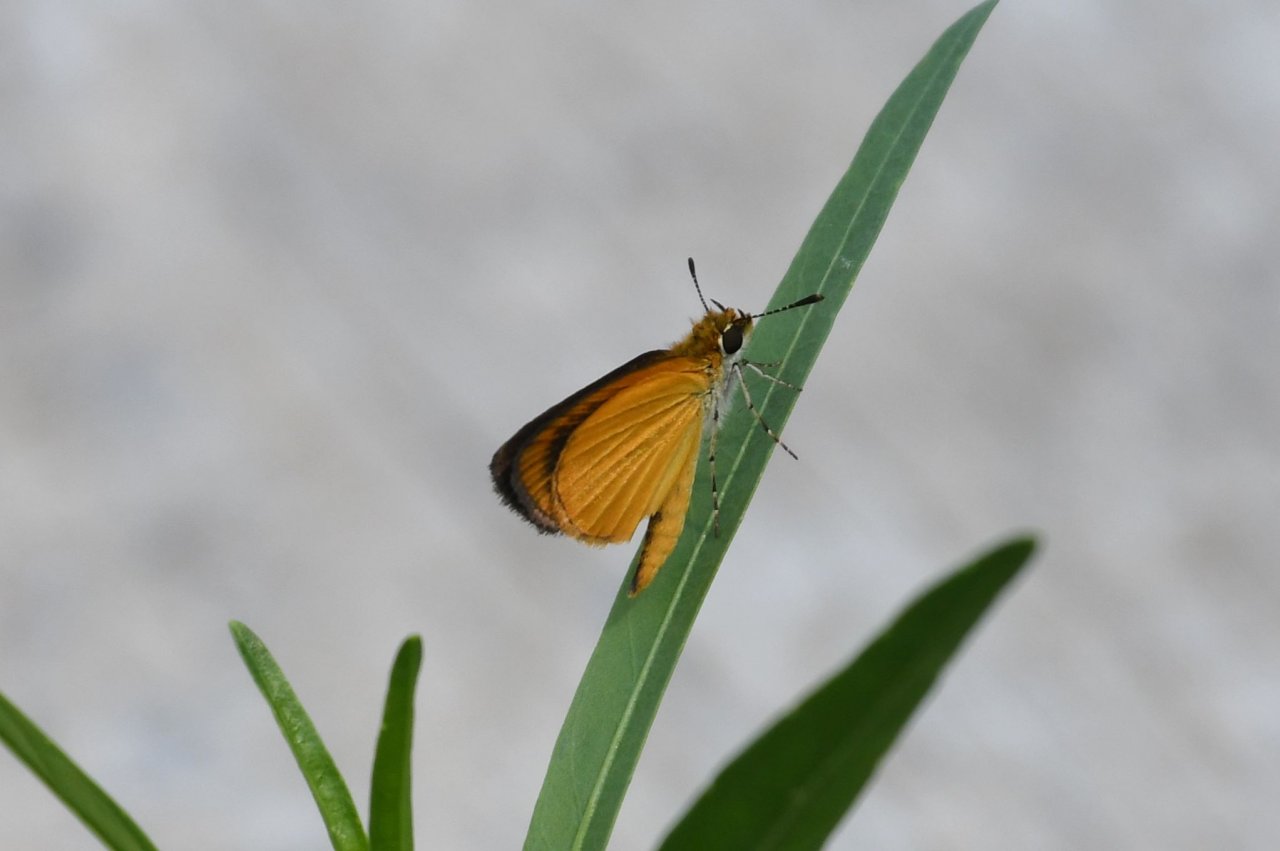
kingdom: Animalia
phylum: Arthropoda
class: Insecta
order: Lepidoptera
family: Hesperiidae
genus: Ancyloxypha
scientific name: Ancyloxypha numitor
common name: Least Skipper
